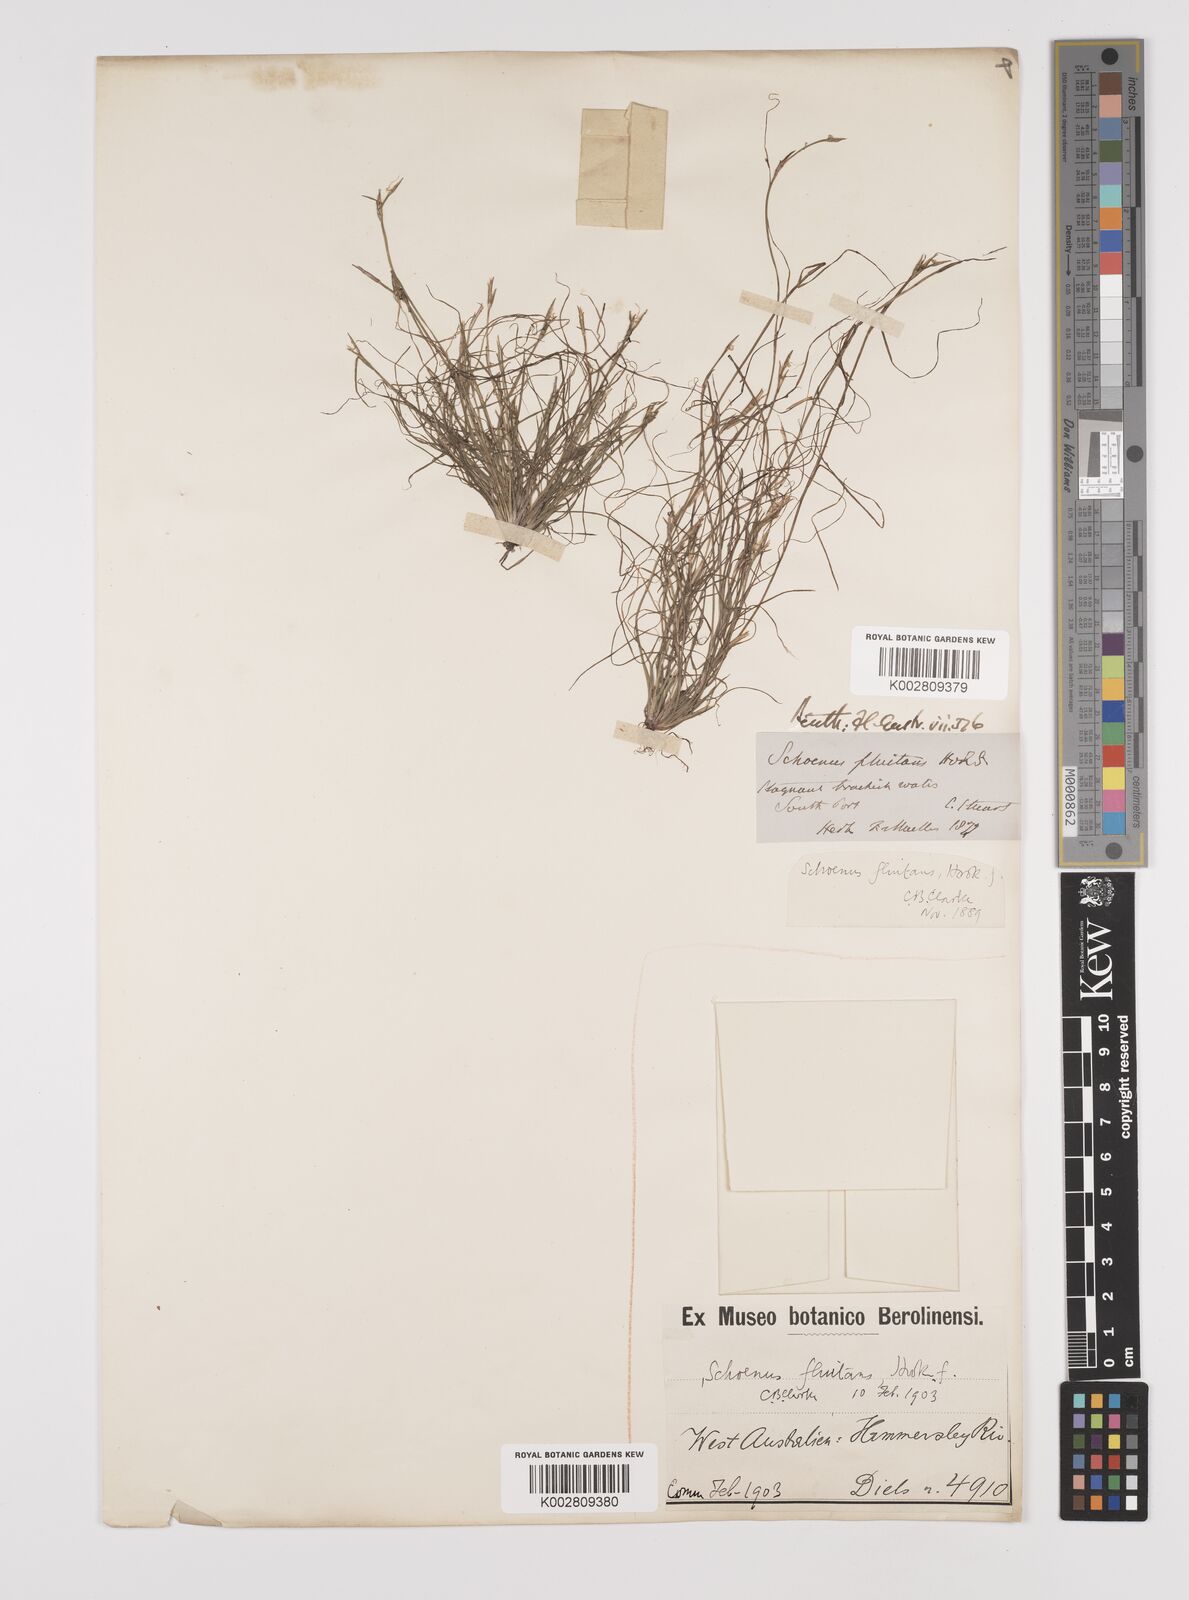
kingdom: Plantae
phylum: Tracheophyta
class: Liliopsida
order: Poales
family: Cyperaceae
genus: Schoenus
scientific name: Schoenus fluitans
